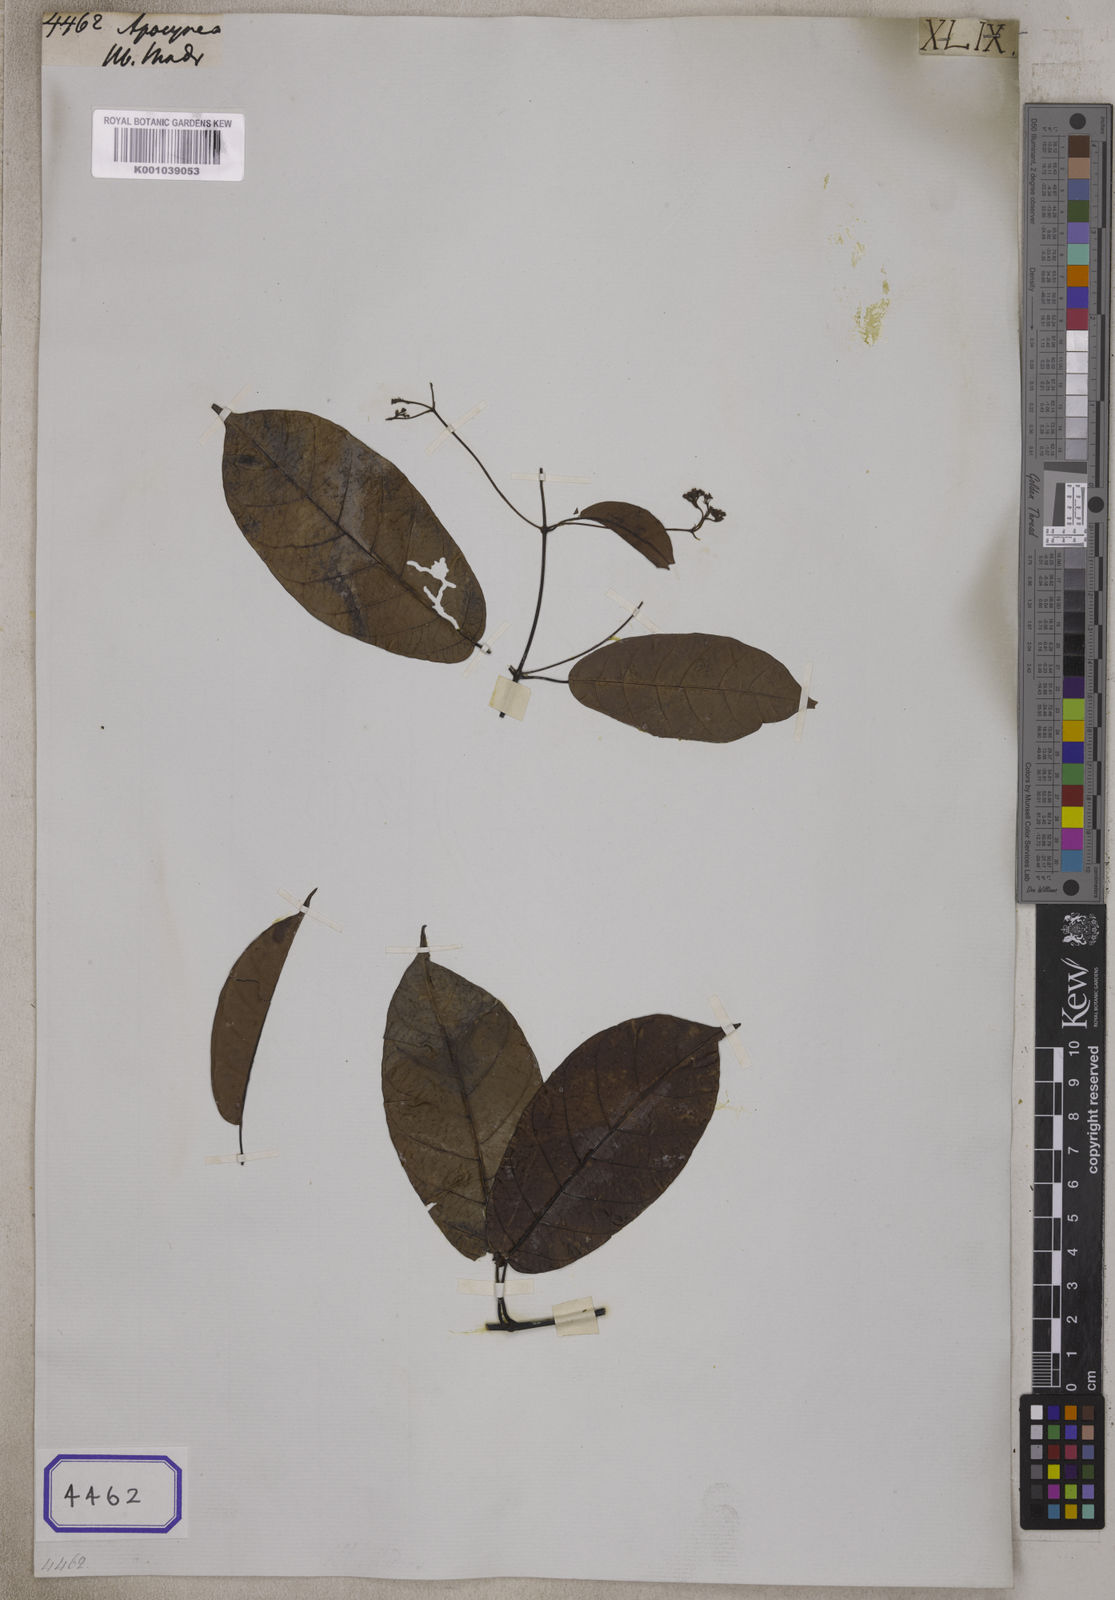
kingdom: Plantae
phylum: Tracheophyta
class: Magnoliopsida
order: Gentianales
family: Apocynaceae
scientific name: Apocynaceae
